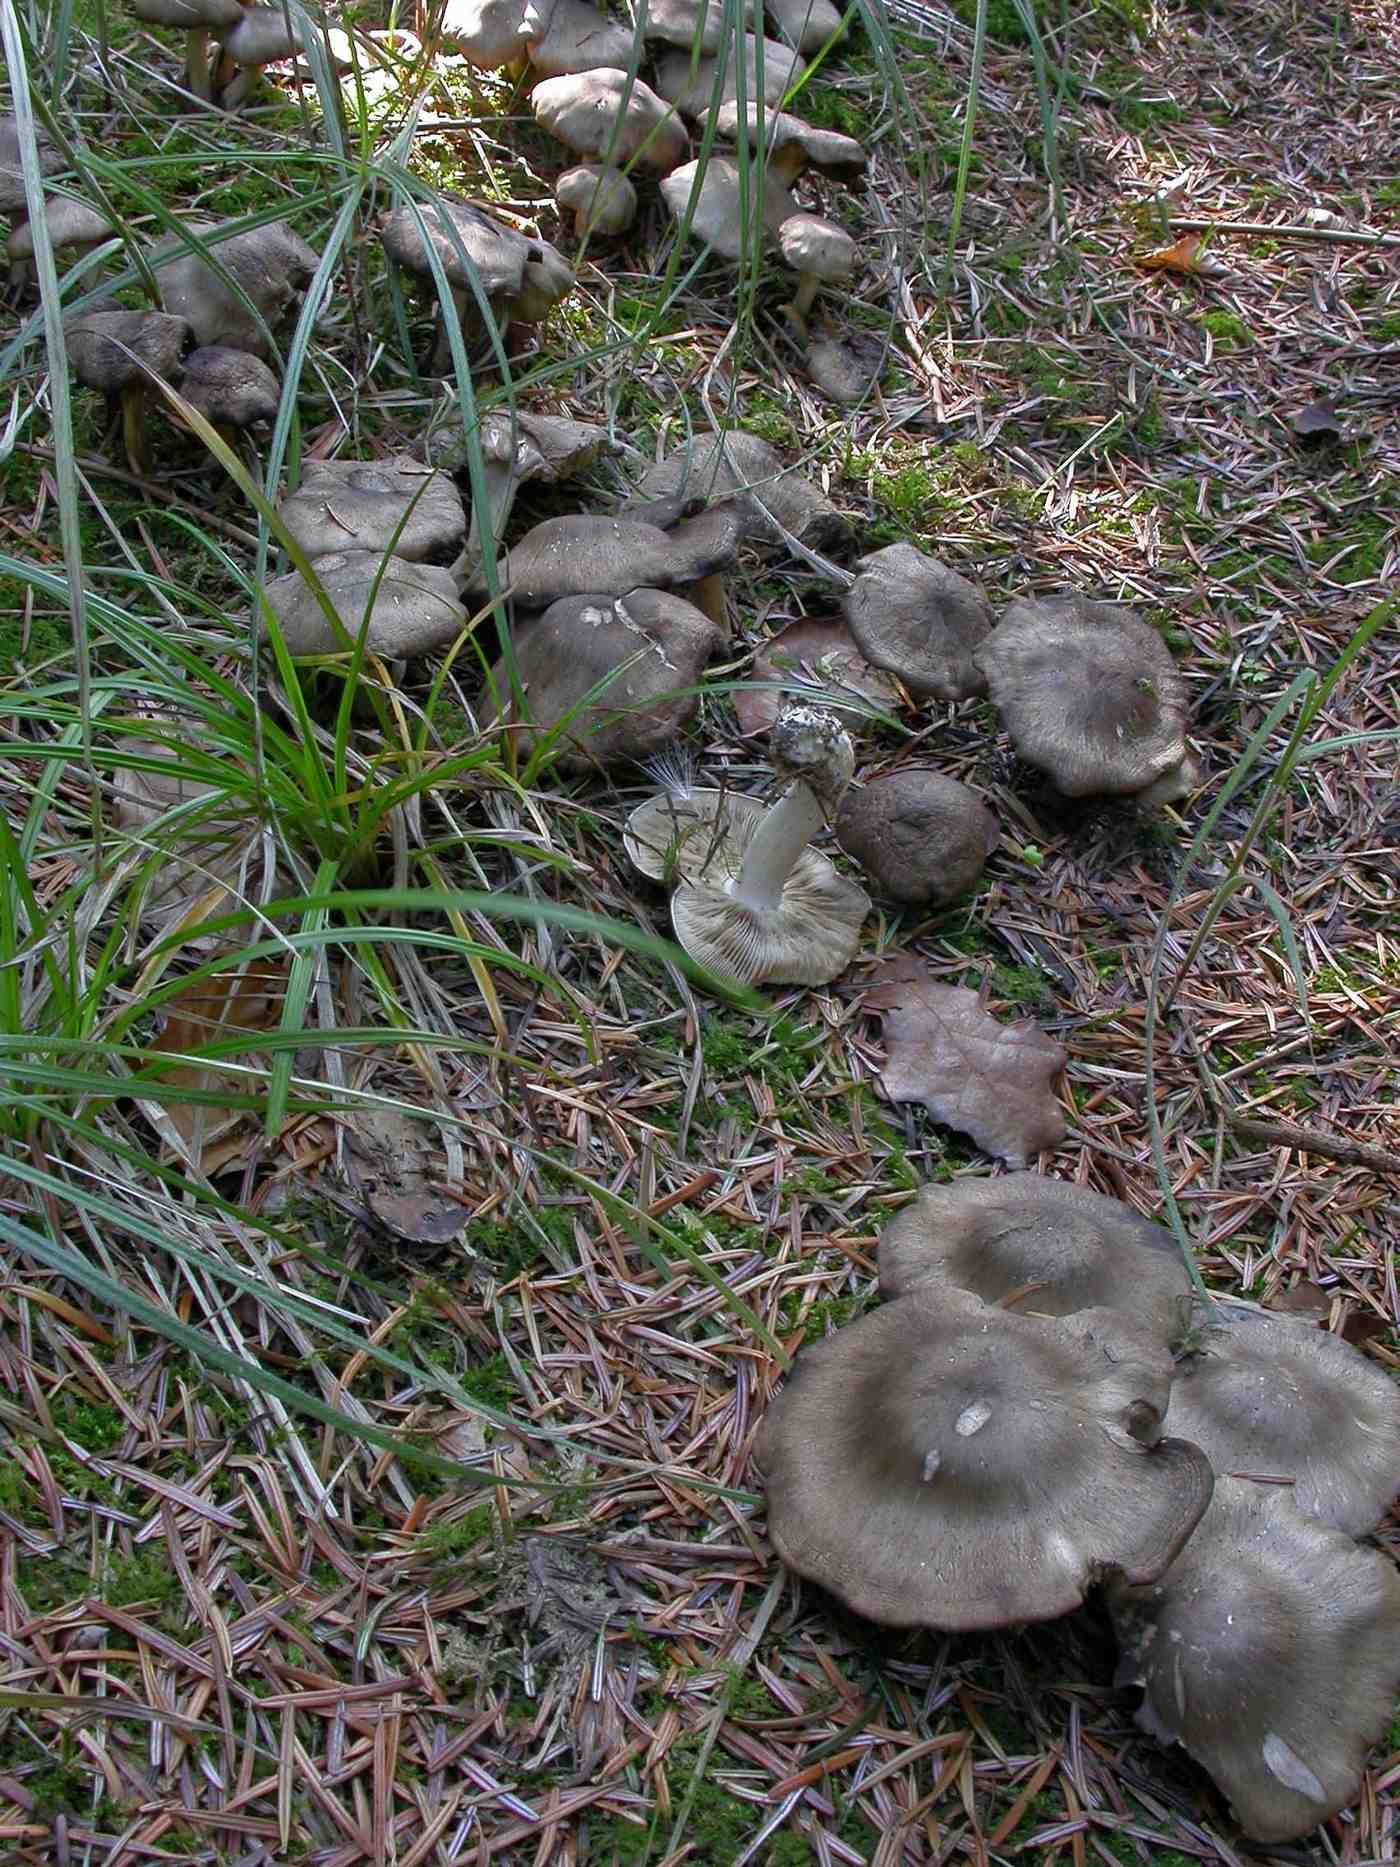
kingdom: Fungi
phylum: Basidiomycota
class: Agaricomycetes
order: Agaricales
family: Lyophyllaceae
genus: Lyophyllum
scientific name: Lyophyllum decastes
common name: Clustered domecap
